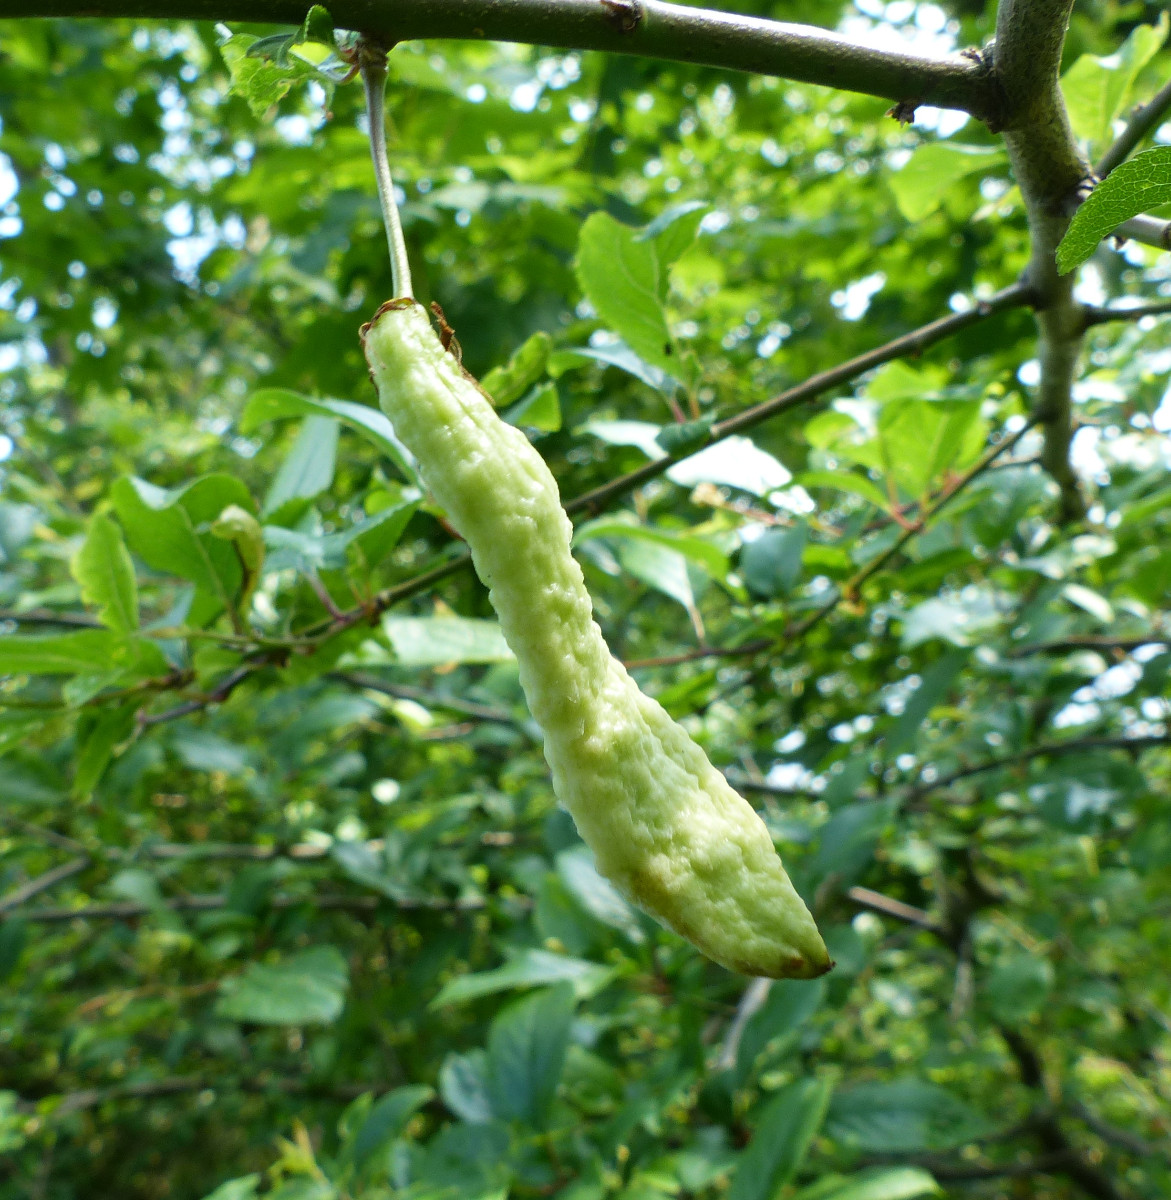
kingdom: Fungi
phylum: Ascomycota
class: Taphrinomycetes
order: Taphrinales
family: Taphrinaceae
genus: Taphrina
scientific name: Taphrina pruni
